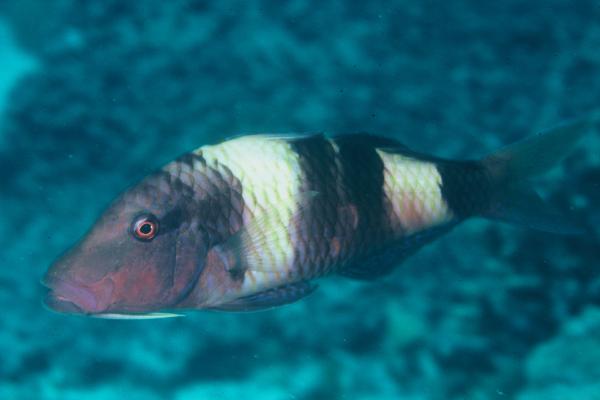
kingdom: Animalia
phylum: Chordata
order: Perciformes
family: Mullidae
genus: Parupeneus
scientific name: Parupeneus multifasciatus
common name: Manybar goatfish
